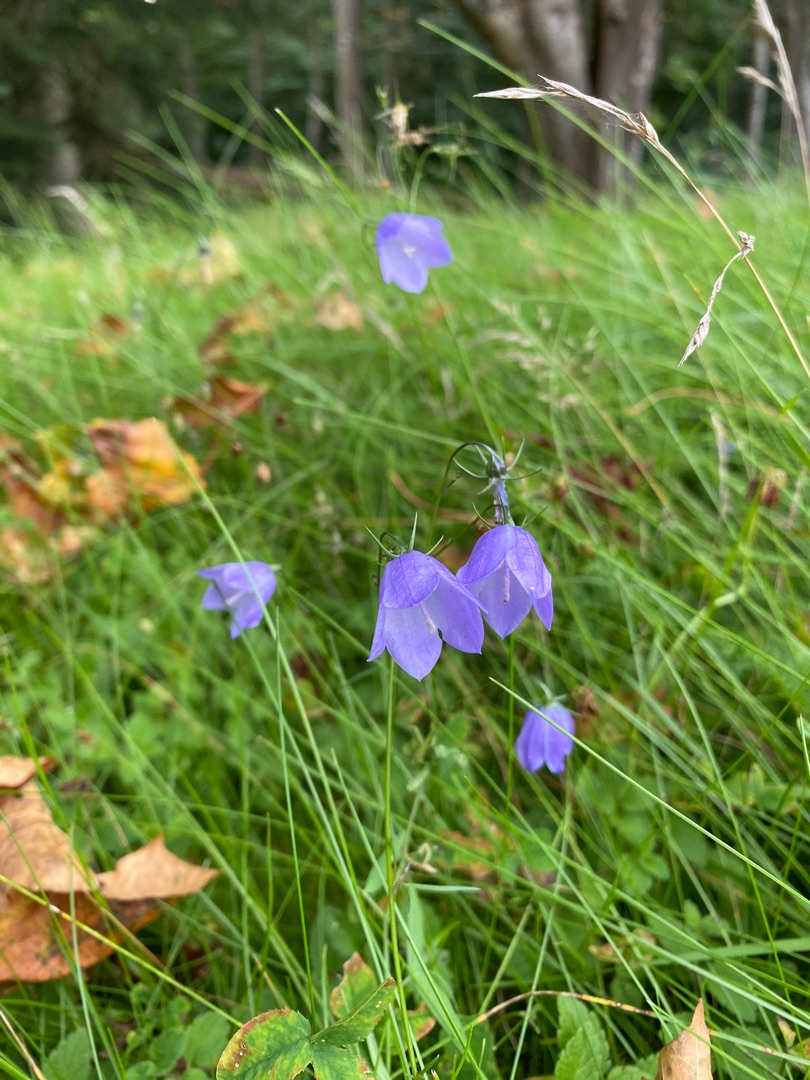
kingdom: Plantae
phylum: Tracheophyta
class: Magnoliopsida
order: Asterales
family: Campanulaceae
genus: Campanula
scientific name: Campanula rotundifolia
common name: Liden klokke
